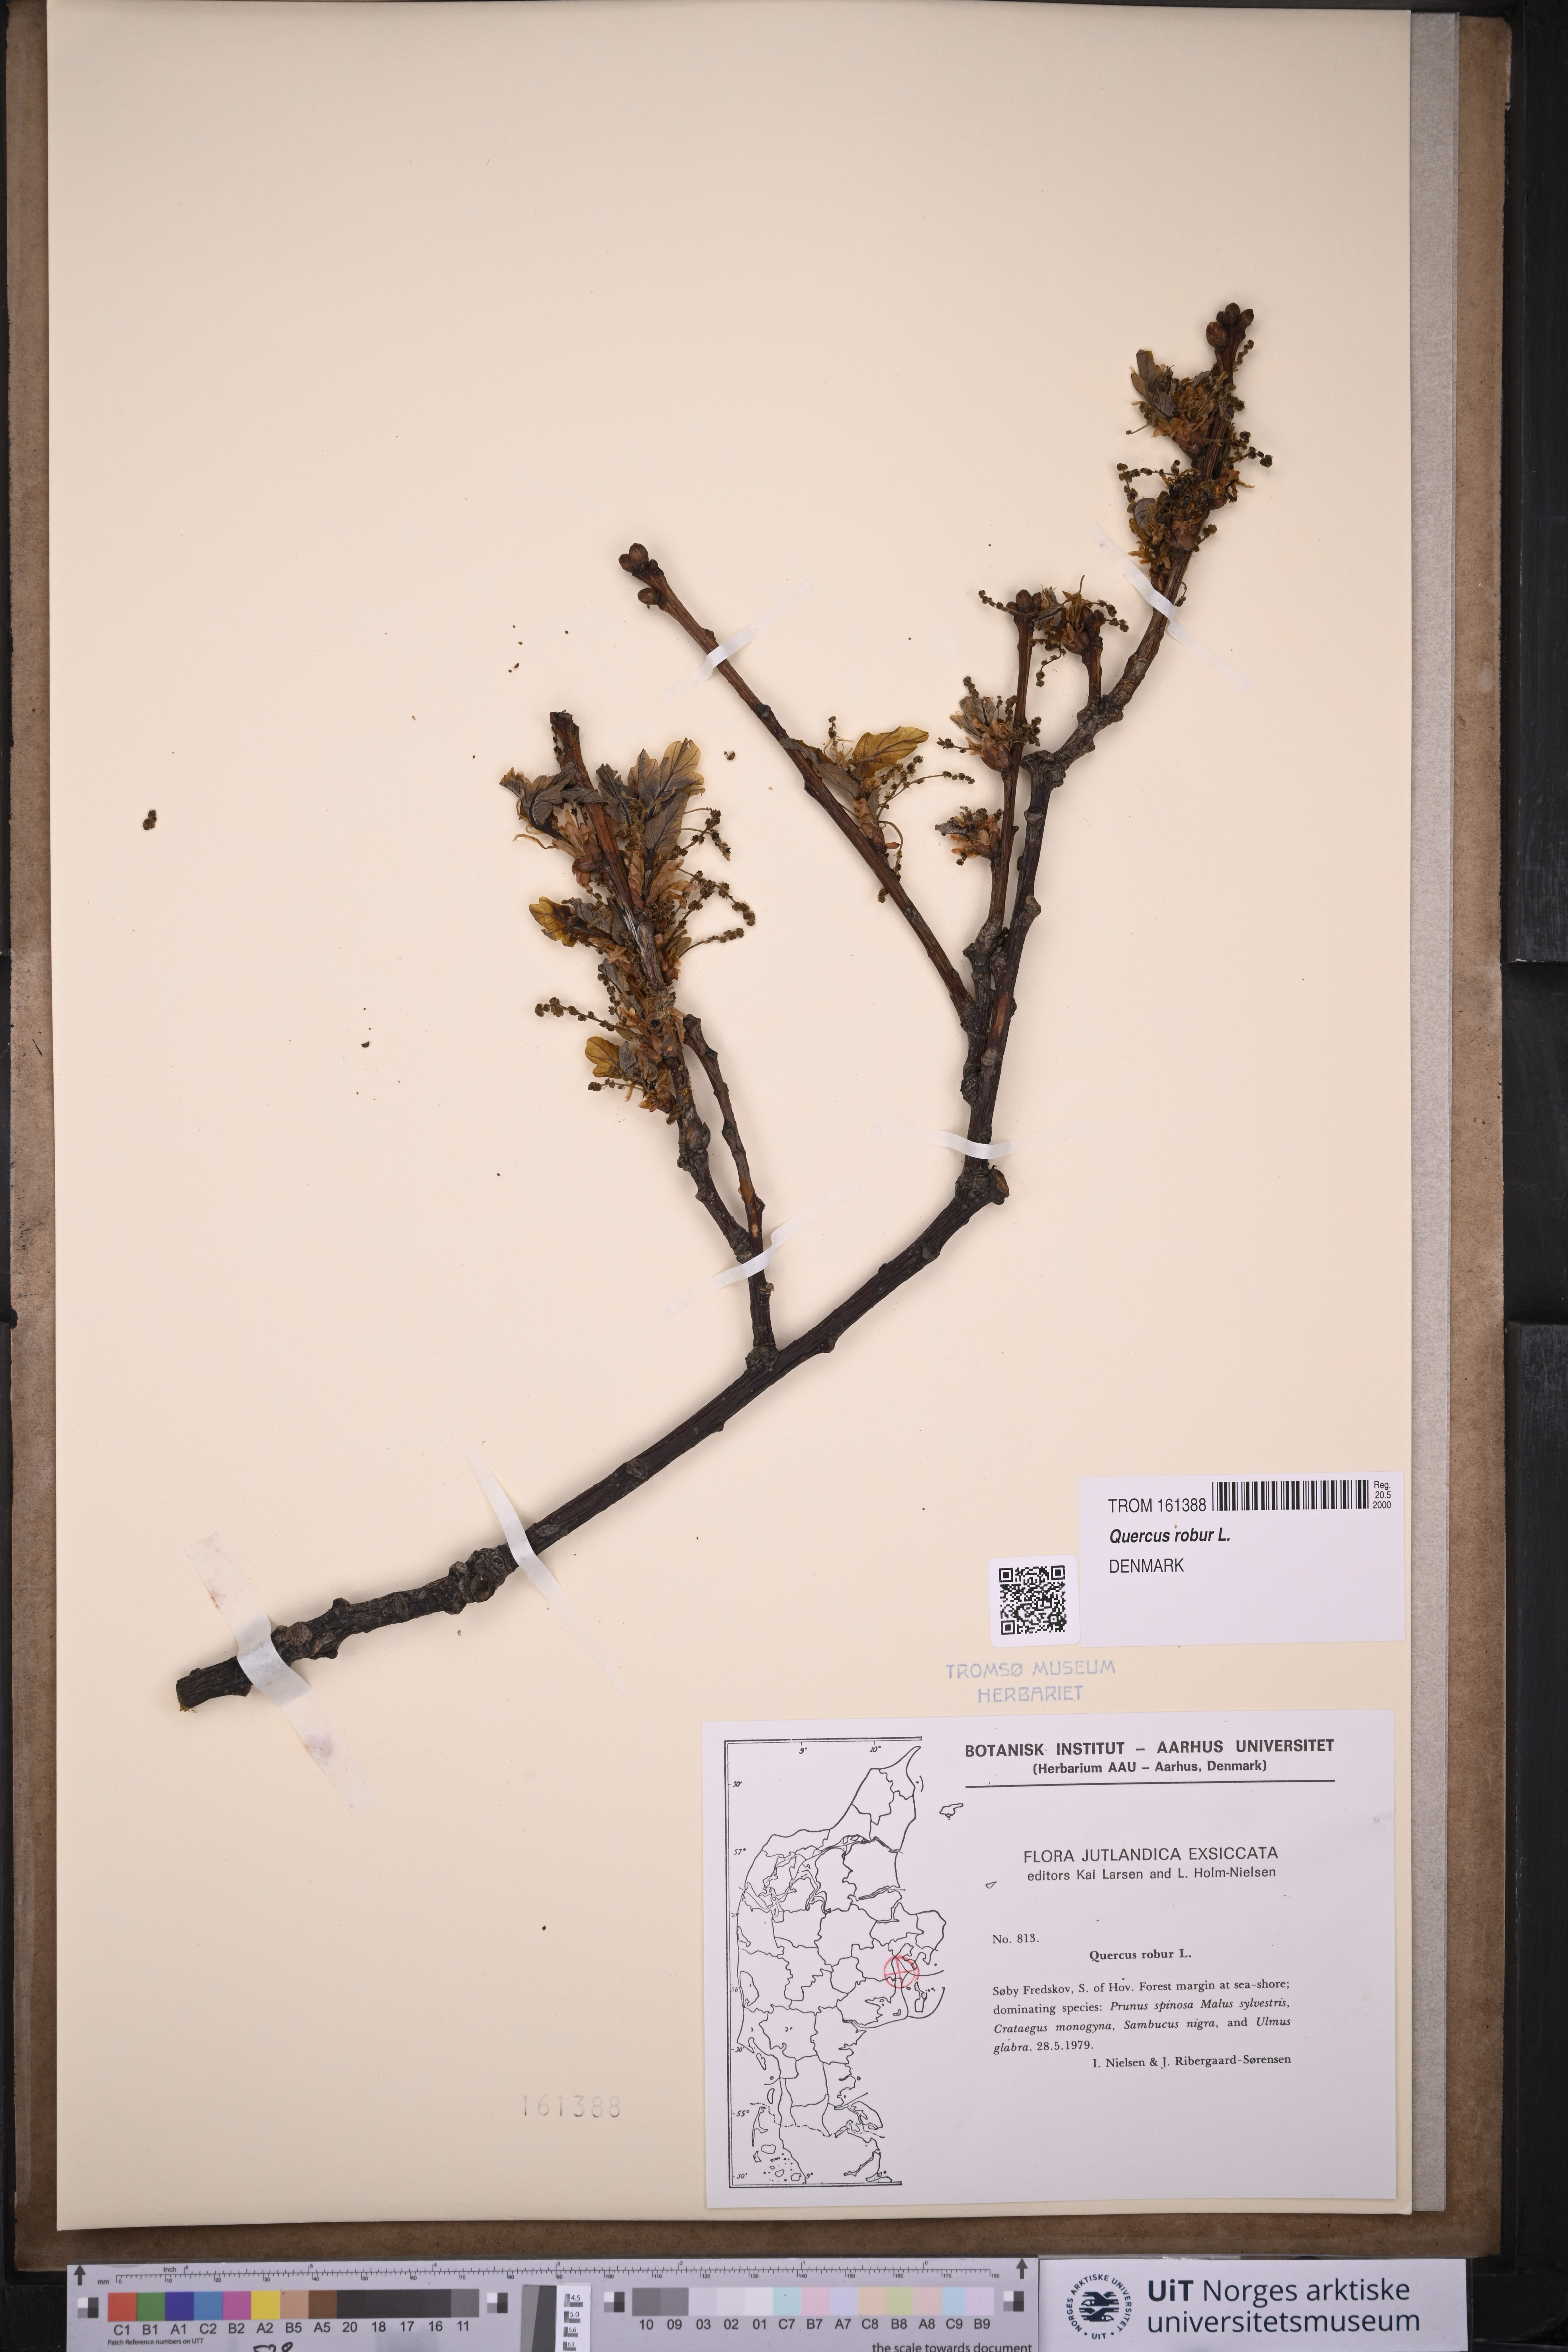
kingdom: Plantae
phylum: Tracheophyta
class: Magnoliopsida
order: Fagales
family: Fagaceae
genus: Quercus
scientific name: Quercus robur
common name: Pedunculate oak
